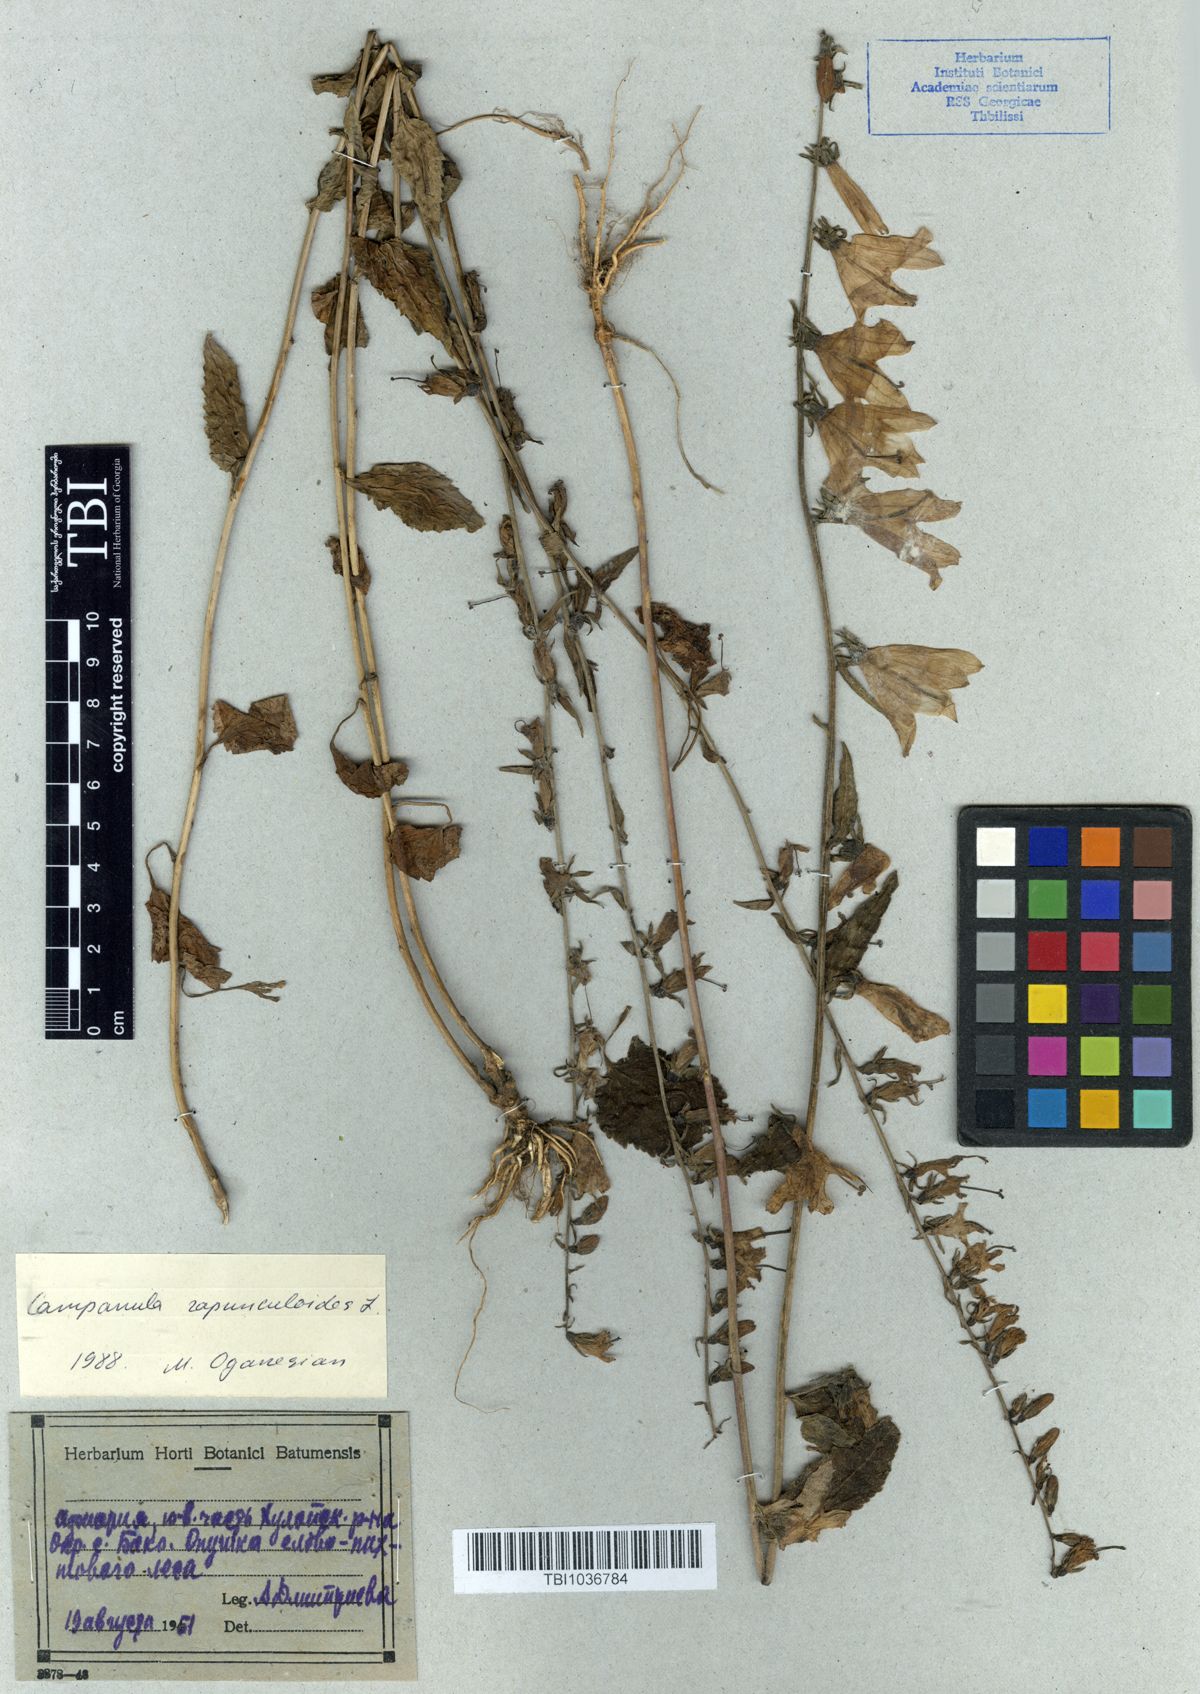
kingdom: Plantae
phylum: Tracheophyta
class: Magnoliopsida
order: Asterales
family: Campanulaceae
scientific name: Campanulaceae
